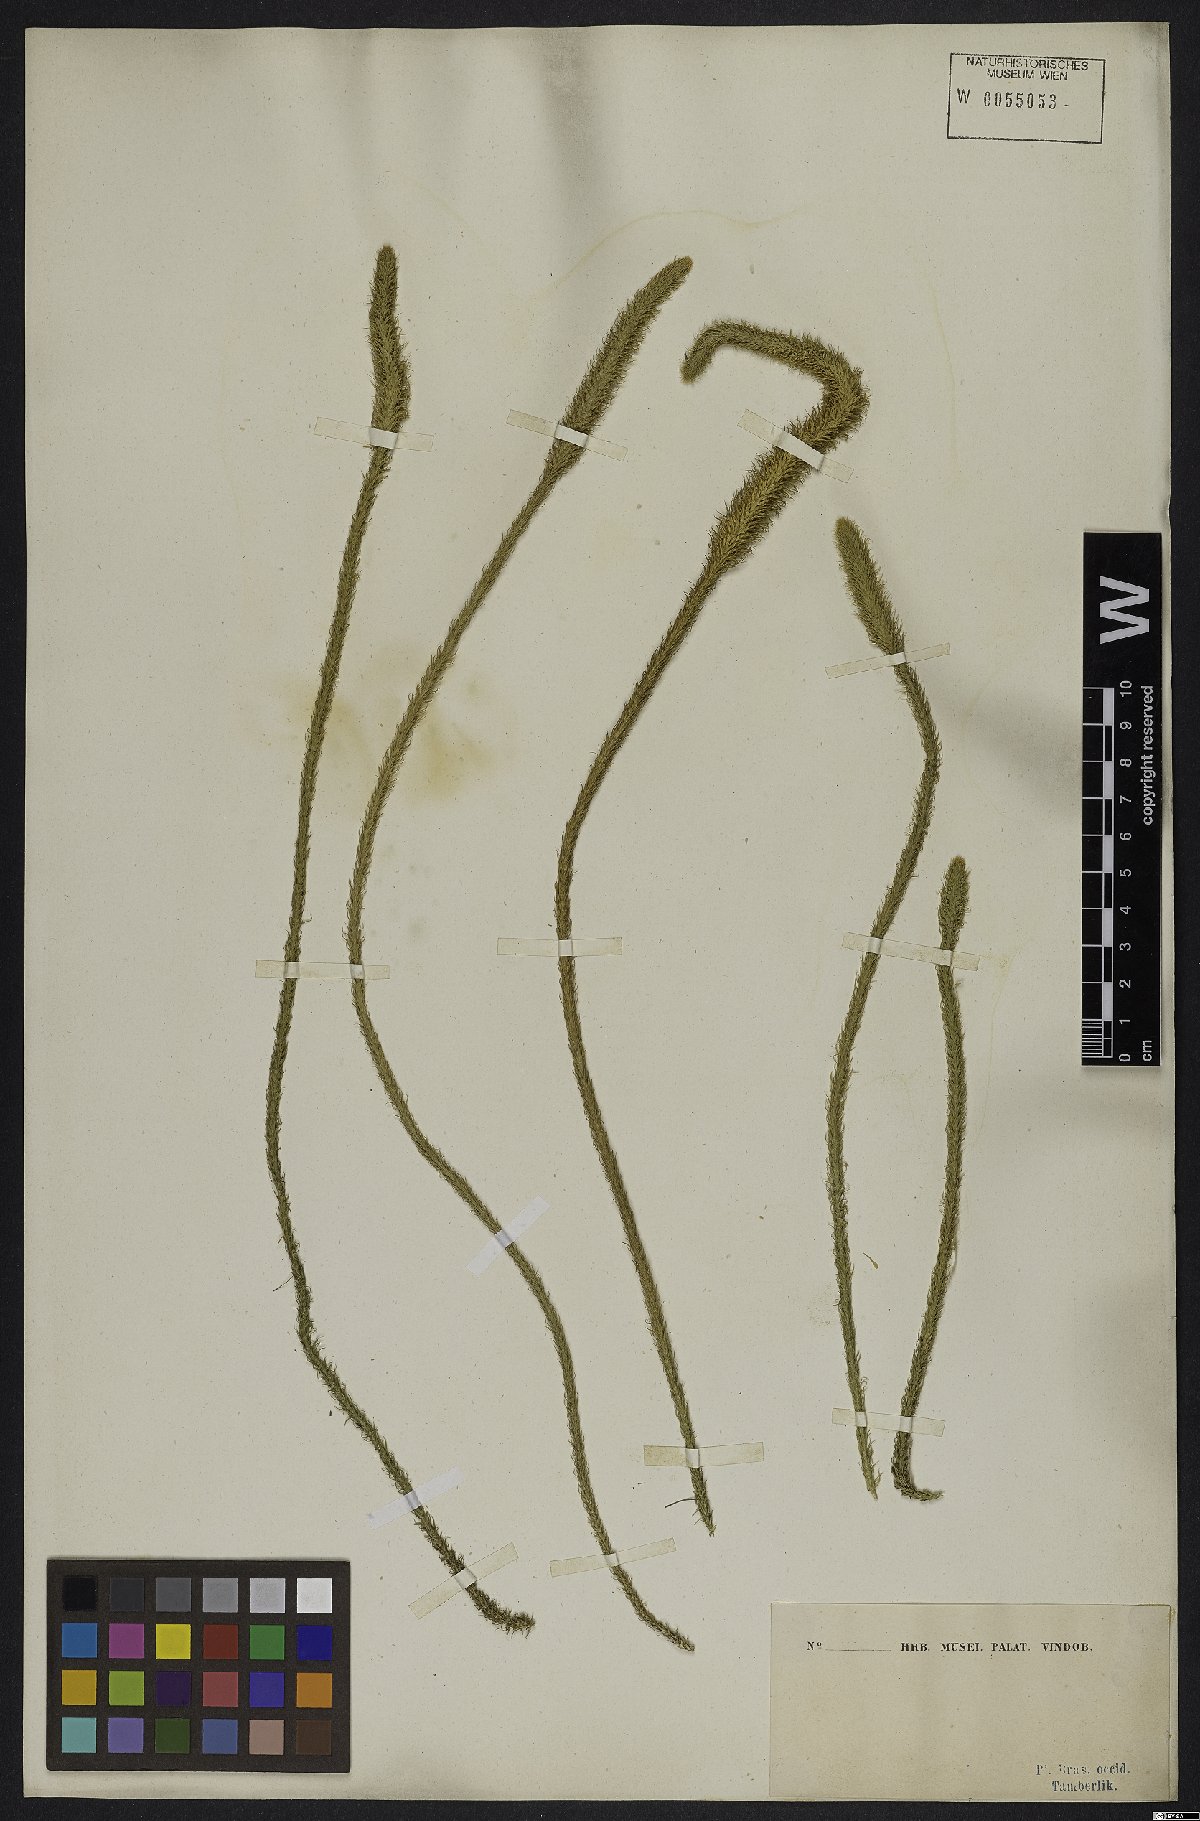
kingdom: Plantae
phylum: Tracheophyta
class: Lycopodiopsida
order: Lycopodiales
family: Lycopodiaceae
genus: Lycopodiella
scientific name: Lycopodiella alopecuroides
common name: Foxtail clubmoss
